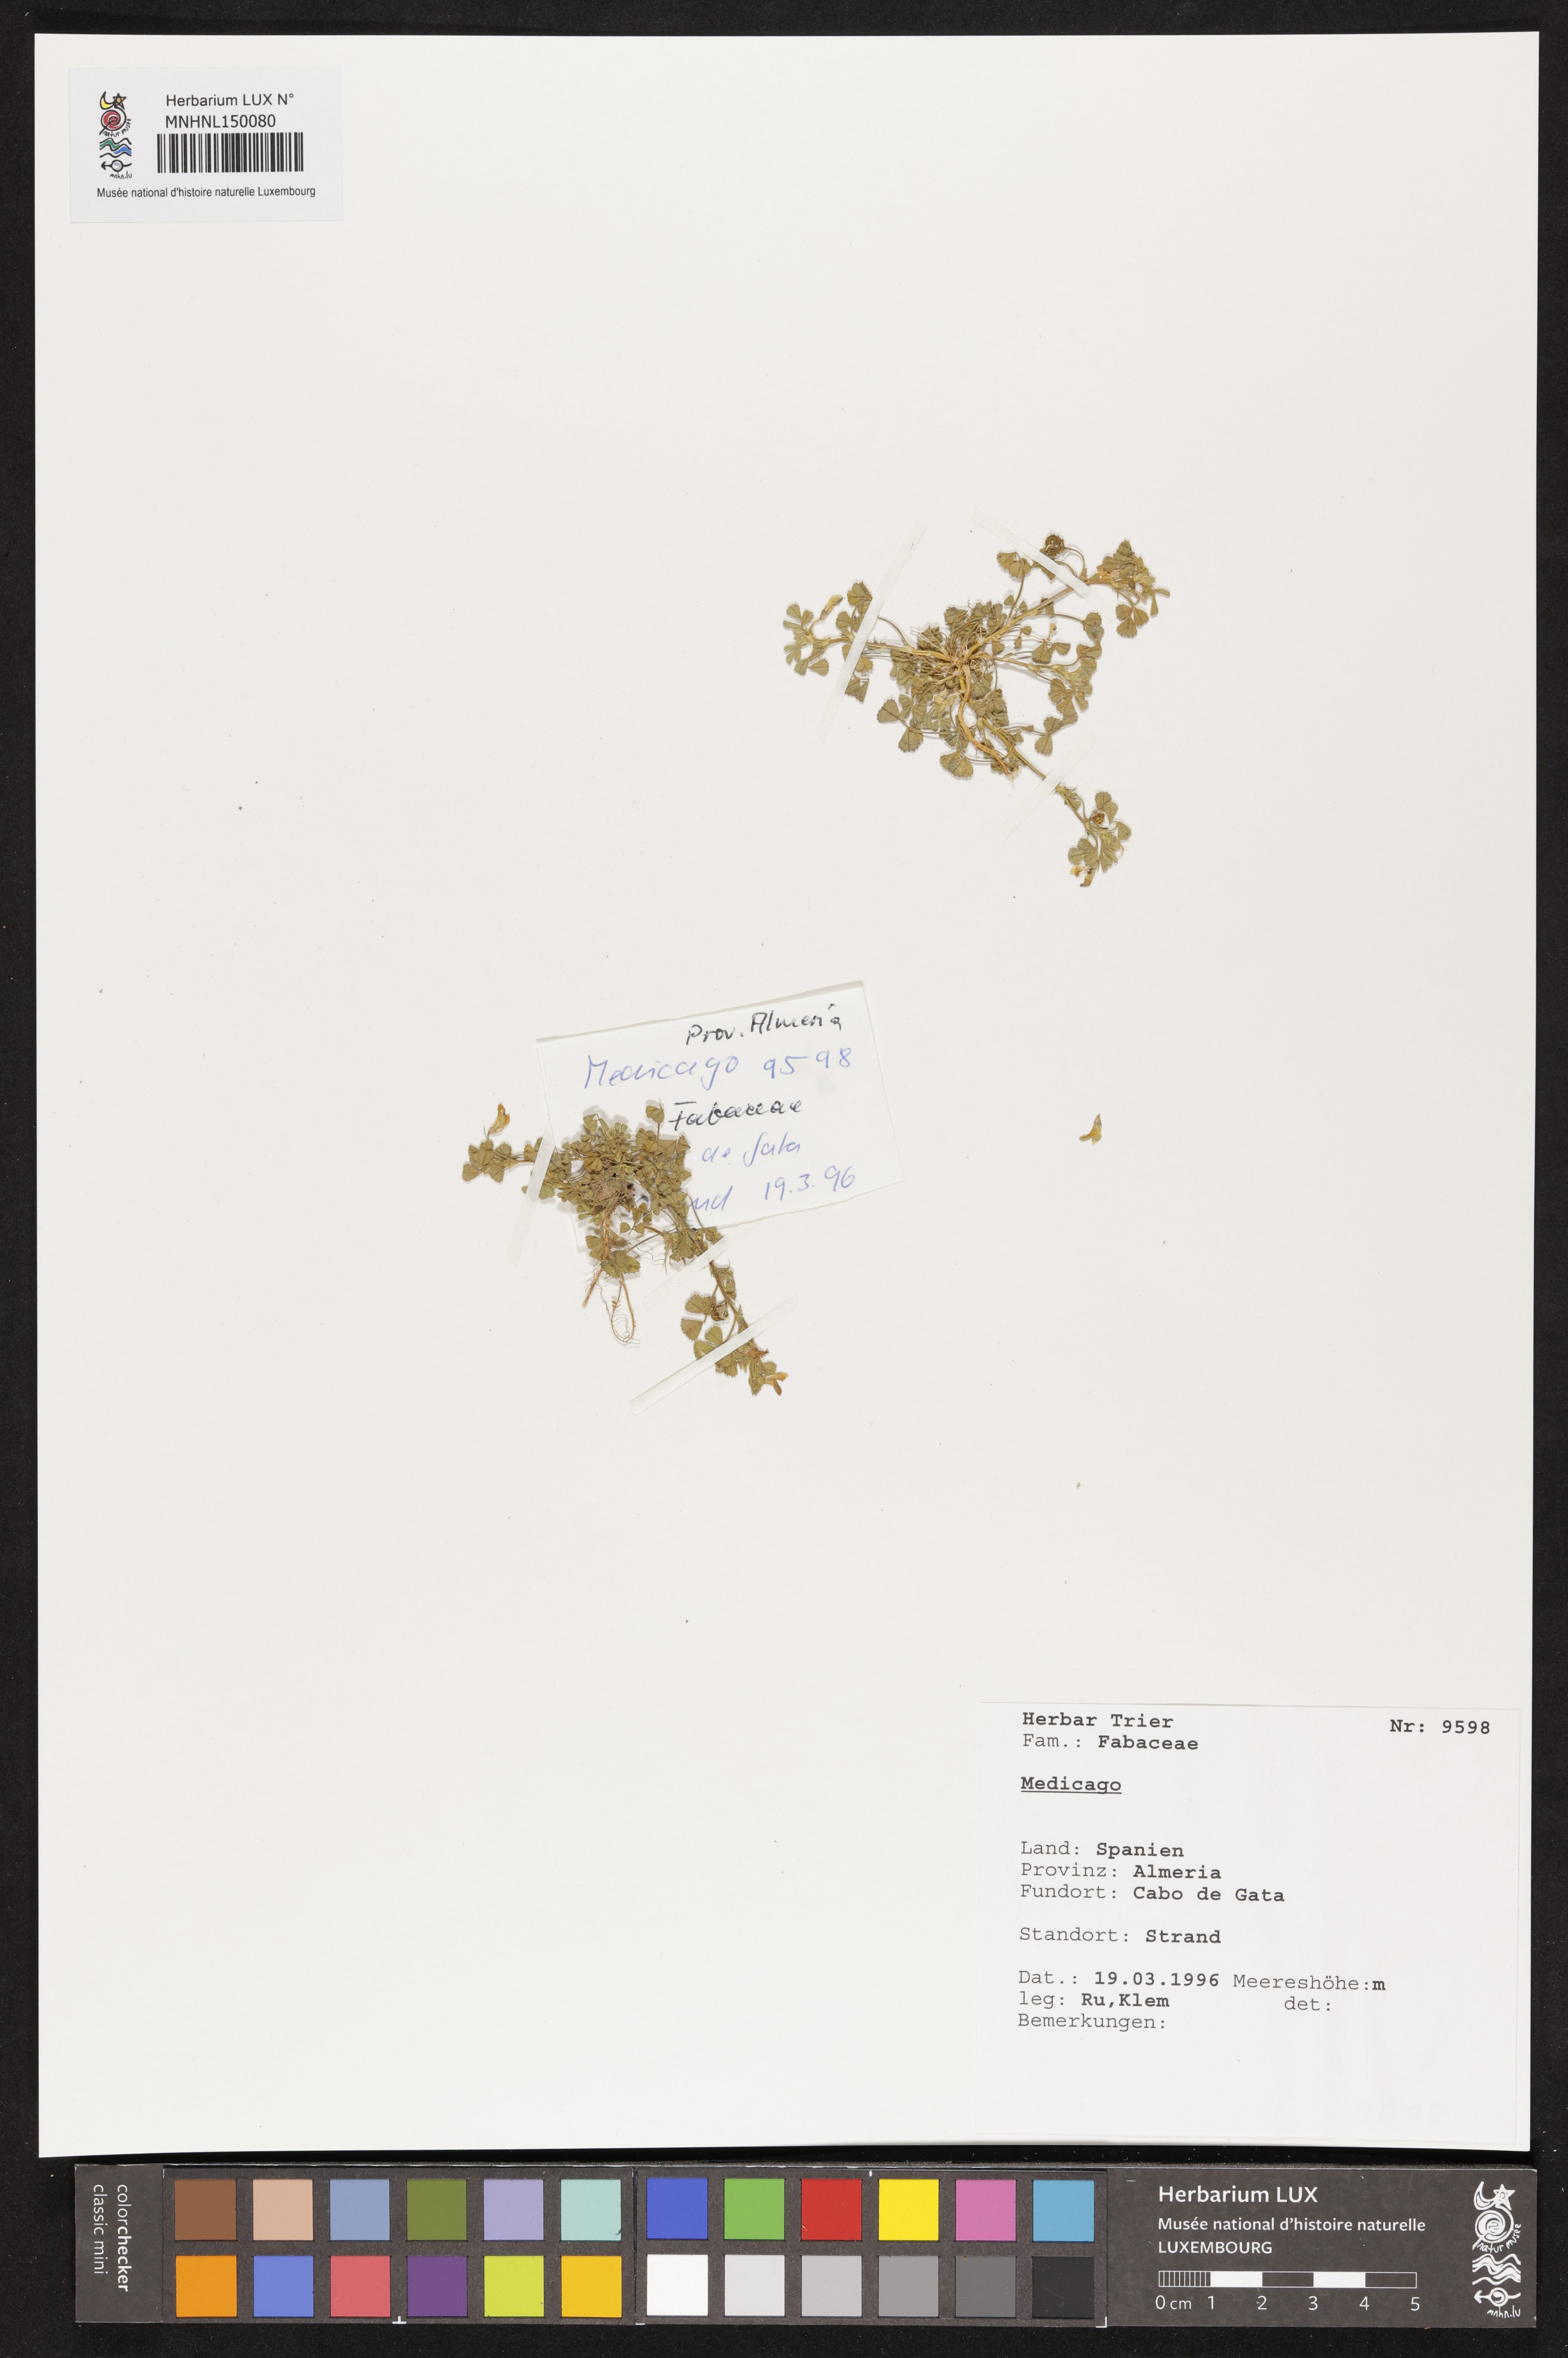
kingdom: Plantae
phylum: Tracheophyta
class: Magnoliopsida
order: Fabales
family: Fabaceae
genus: Medicago
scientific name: Medicago
